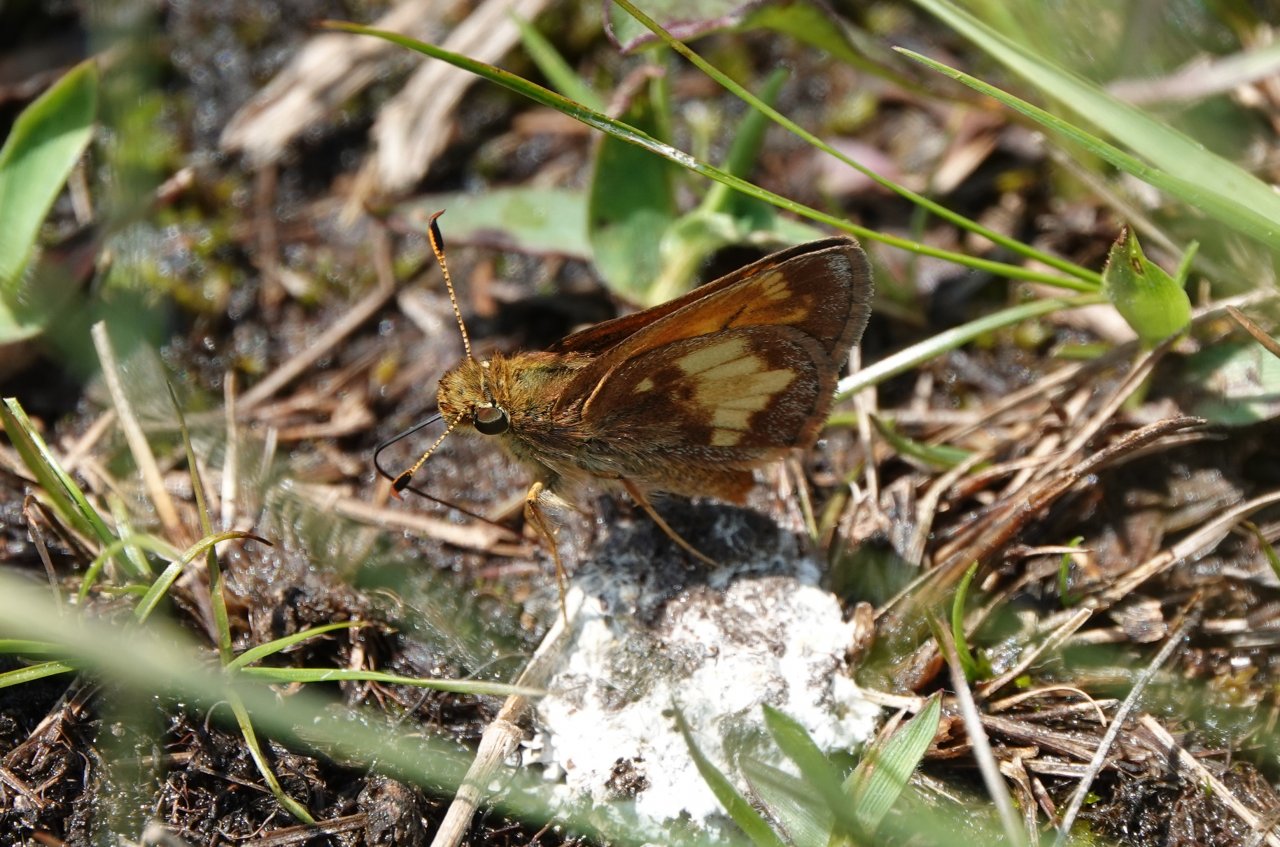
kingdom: Animalia
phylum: Arthropoda
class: Insecta
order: Lepidoptera
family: Hesperiidae
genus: Lon
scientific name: Lon hobomok
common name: Hobomok Skipper
